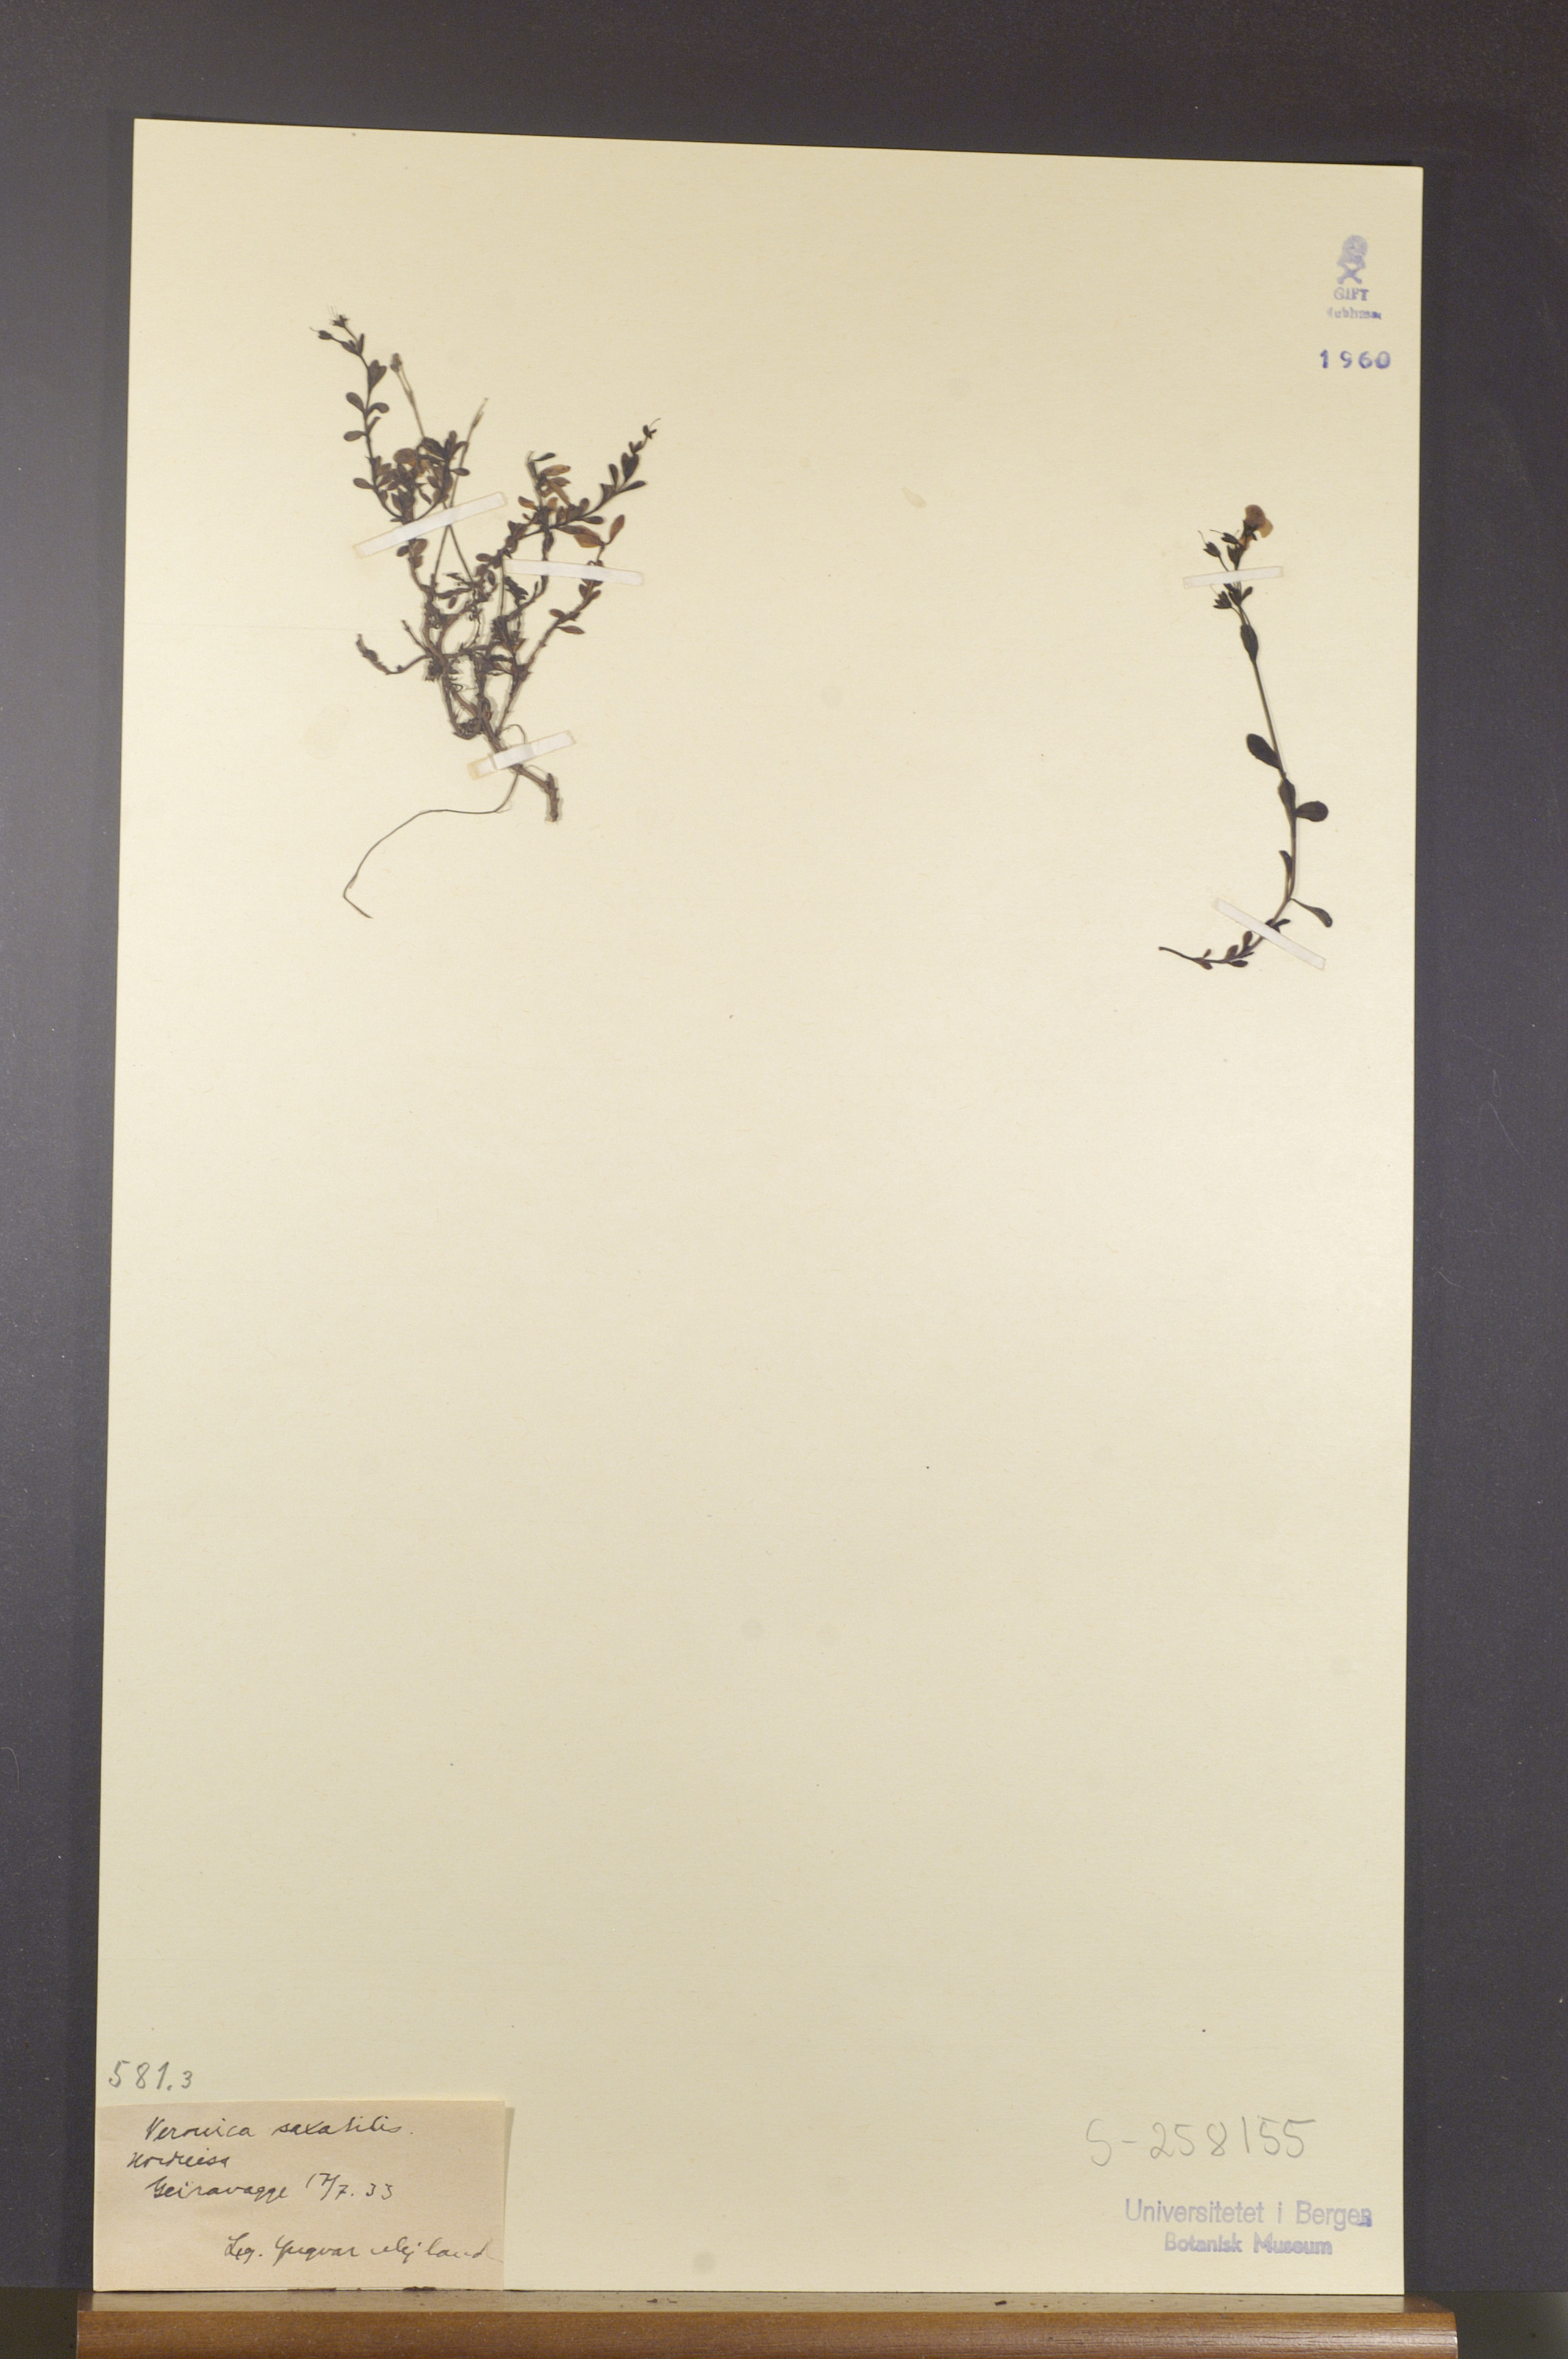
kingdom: Plantae
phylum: Tracheophyta
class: Magnoliopsida
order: Lamiales
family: Plantaginaceae
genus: Veronica
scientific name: Veronica fruticans
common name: Rock speedwell
